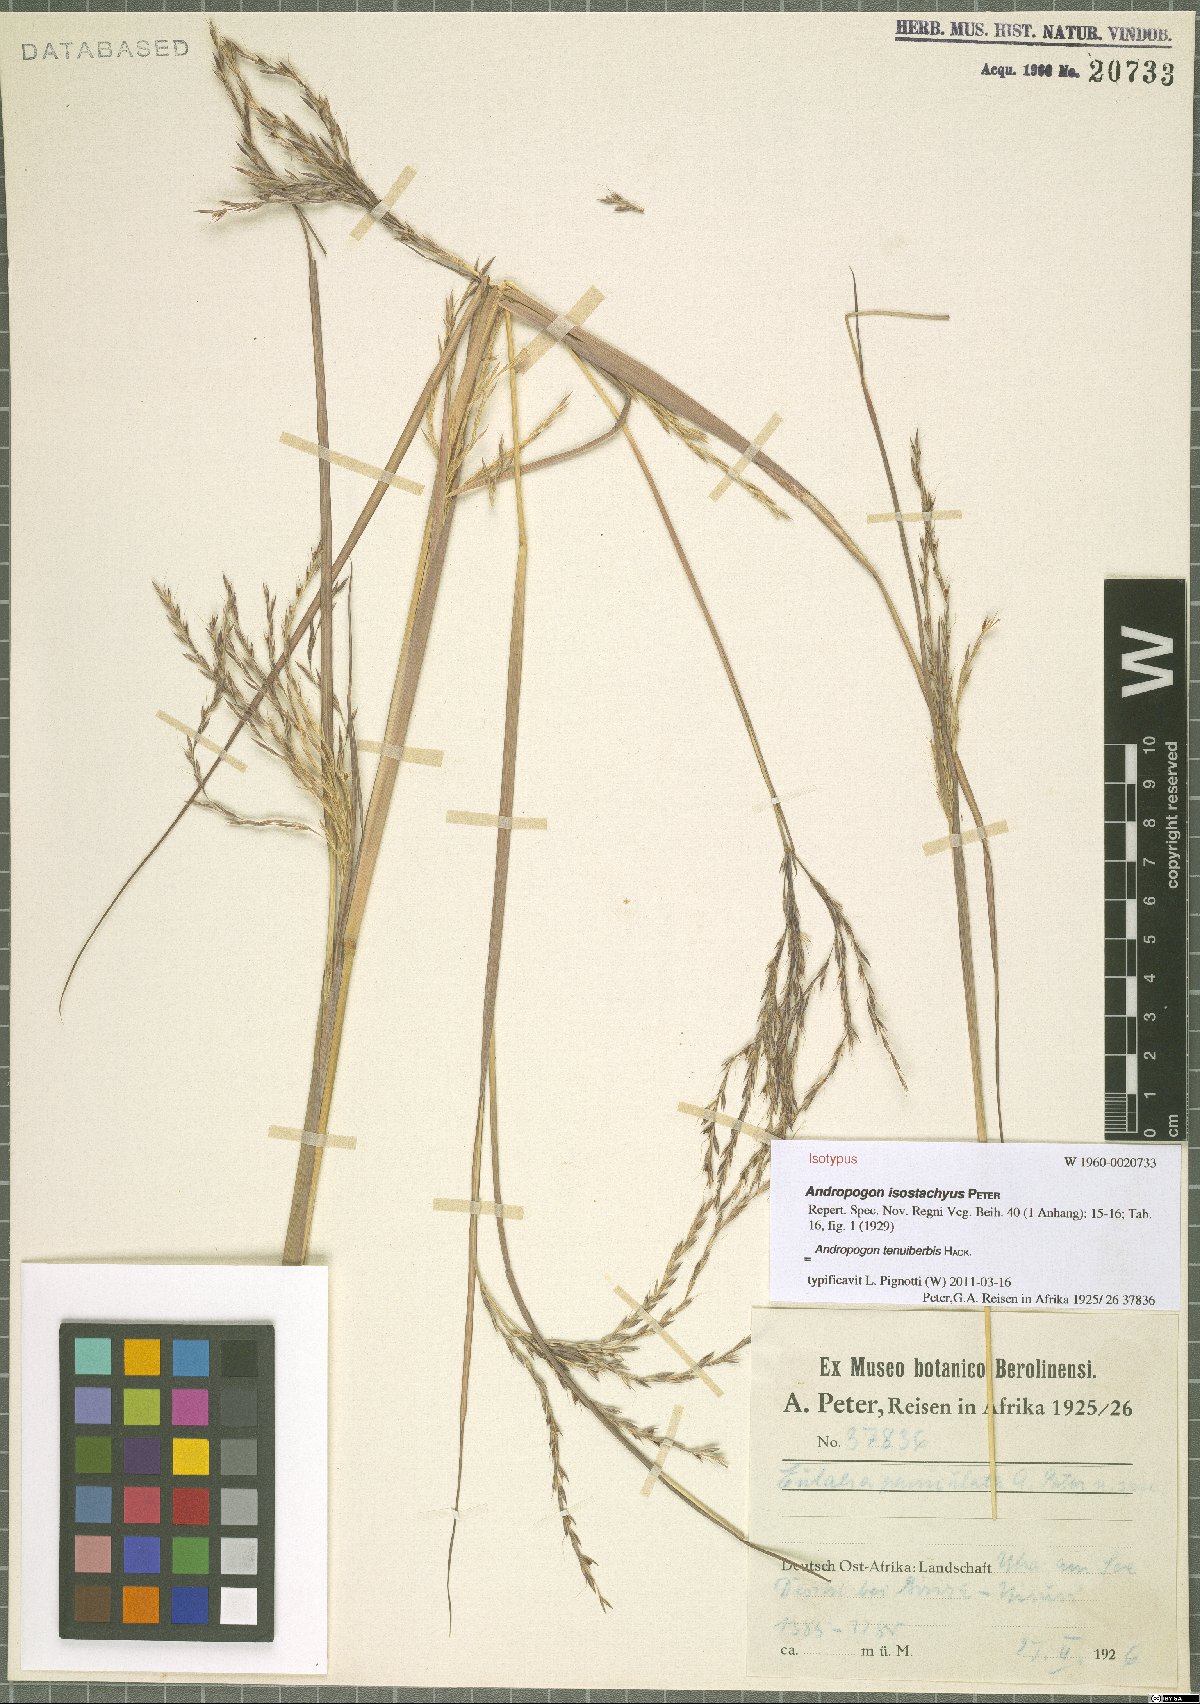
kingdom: Plantae
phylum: Tracheophyta
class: Liliopsida
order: Poales
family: Poaceae
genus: Andropogon
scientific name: Andropogon tenuiberbis
